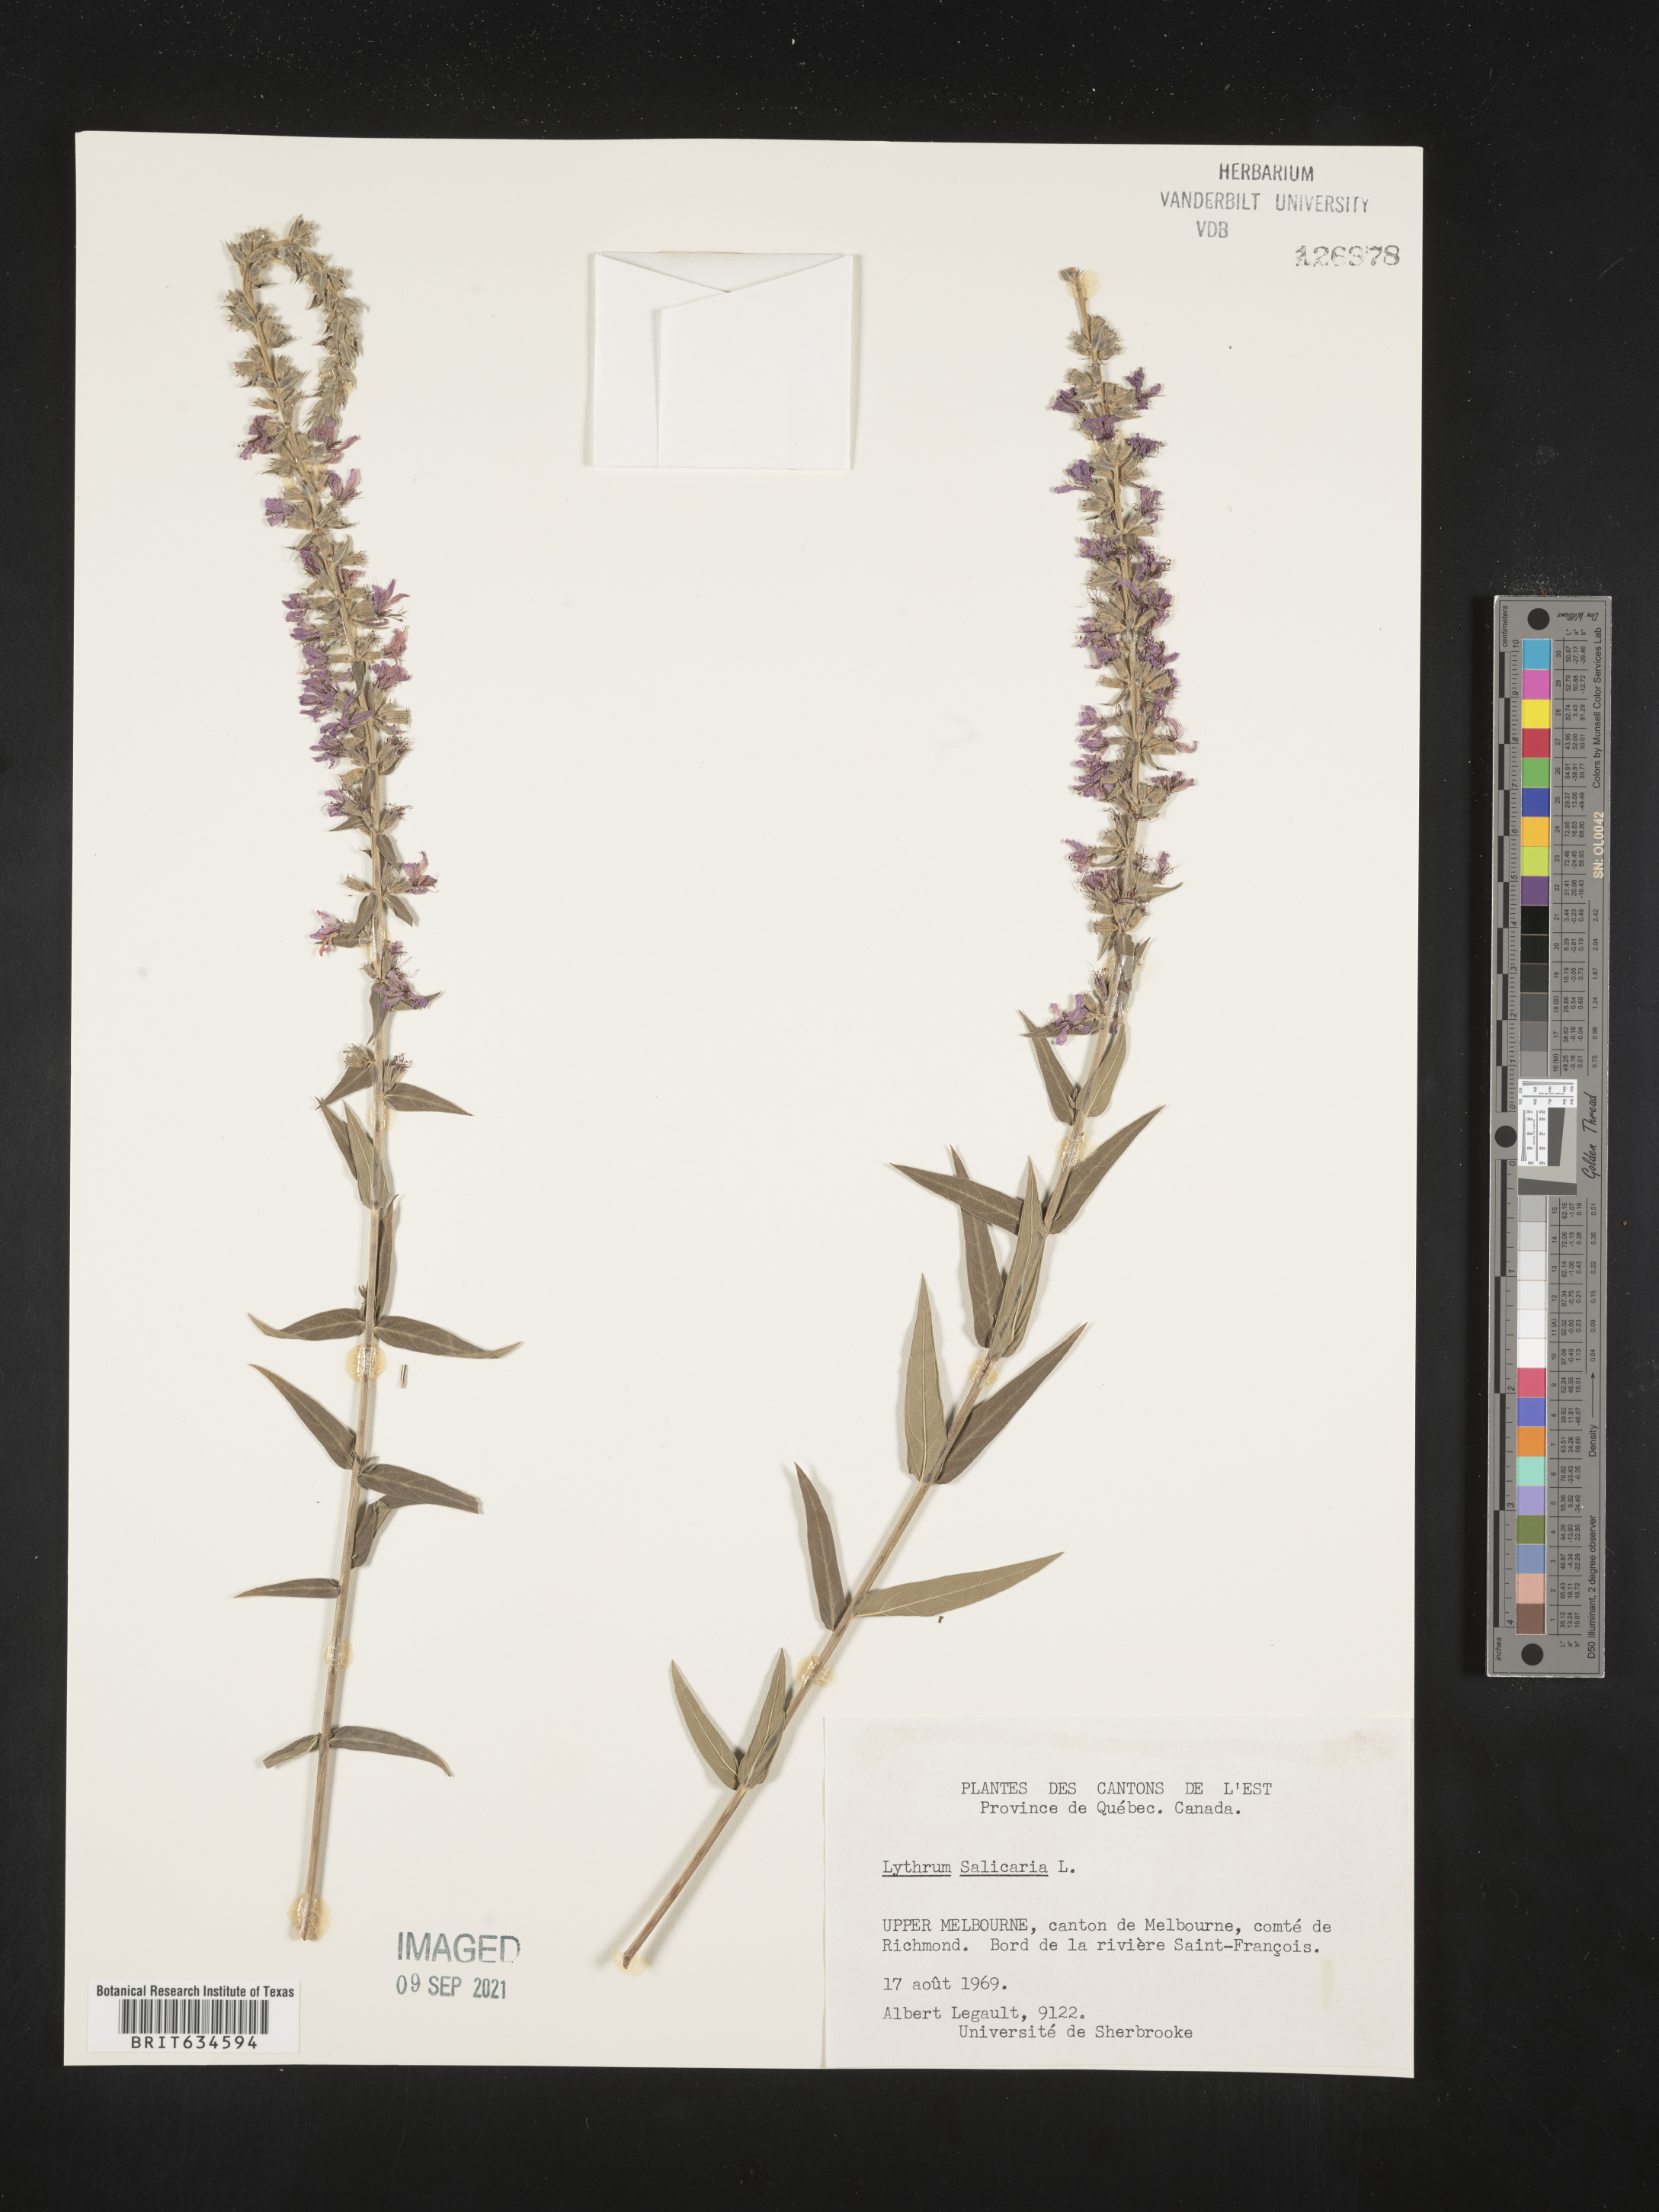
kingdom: Plantae
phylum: Tracheophyta
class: Magnoliopsida
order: Myrtales
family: Lythraceae
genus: Lythrum
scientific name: Lythrum
